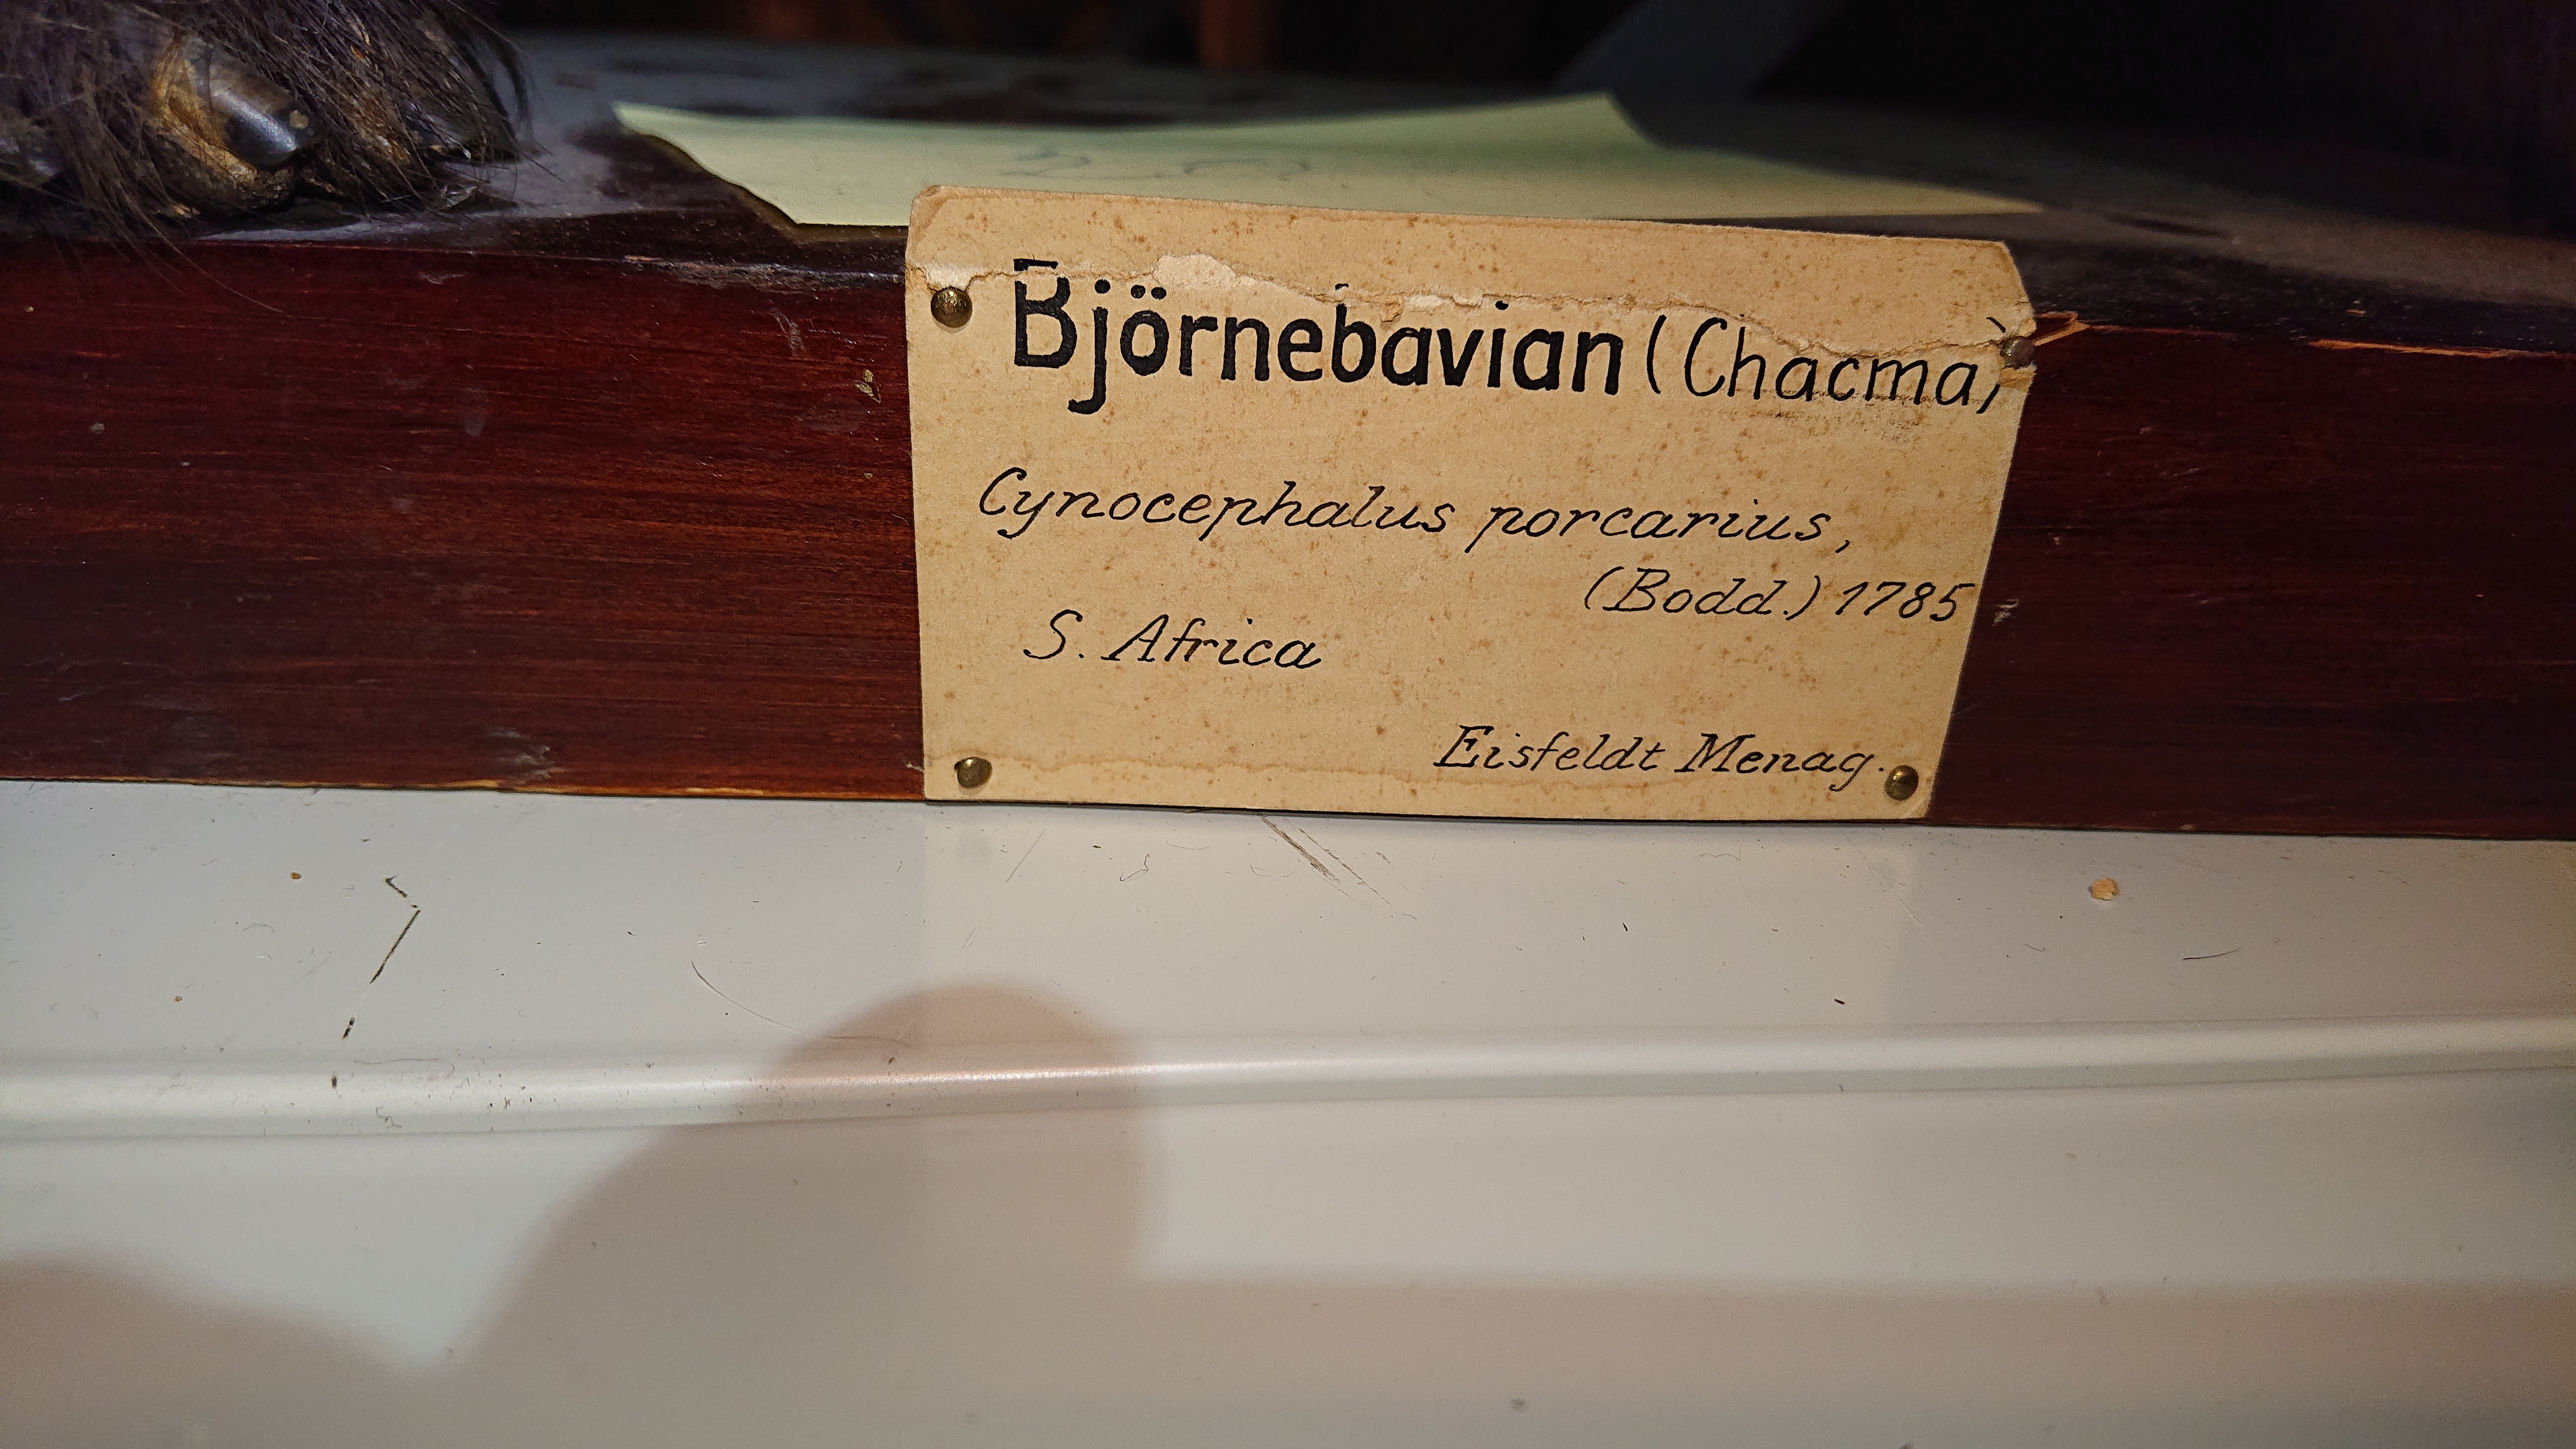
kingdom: Animalia
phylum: Chordata
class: Mammalia
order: Primates
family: Cercopithecidae
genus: Papio
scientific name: Papio ursinus
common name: Chacma baboon
